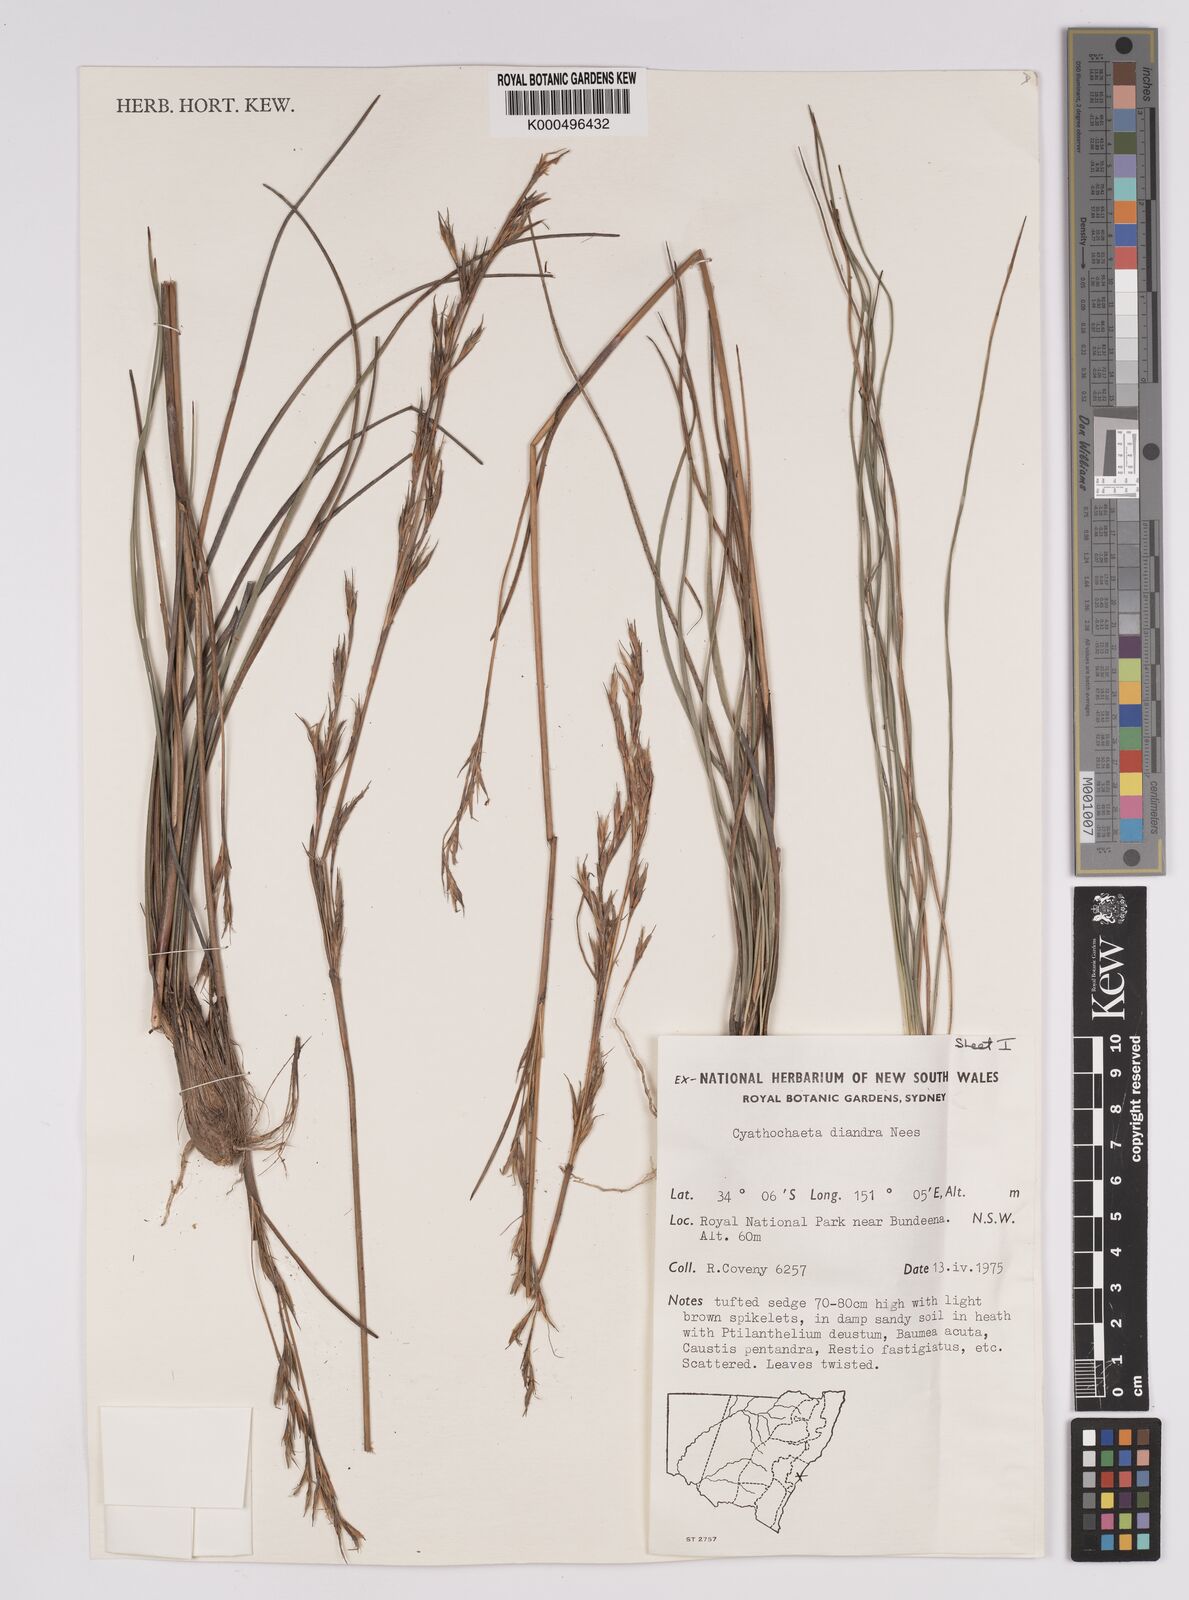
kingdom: Plantae
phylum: Tracheophyta
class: Liliopsida
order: Poales
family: Cyperaceae
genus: Cyathochaeta
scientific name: Cyathochaeta diandra
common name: Sheath rush
